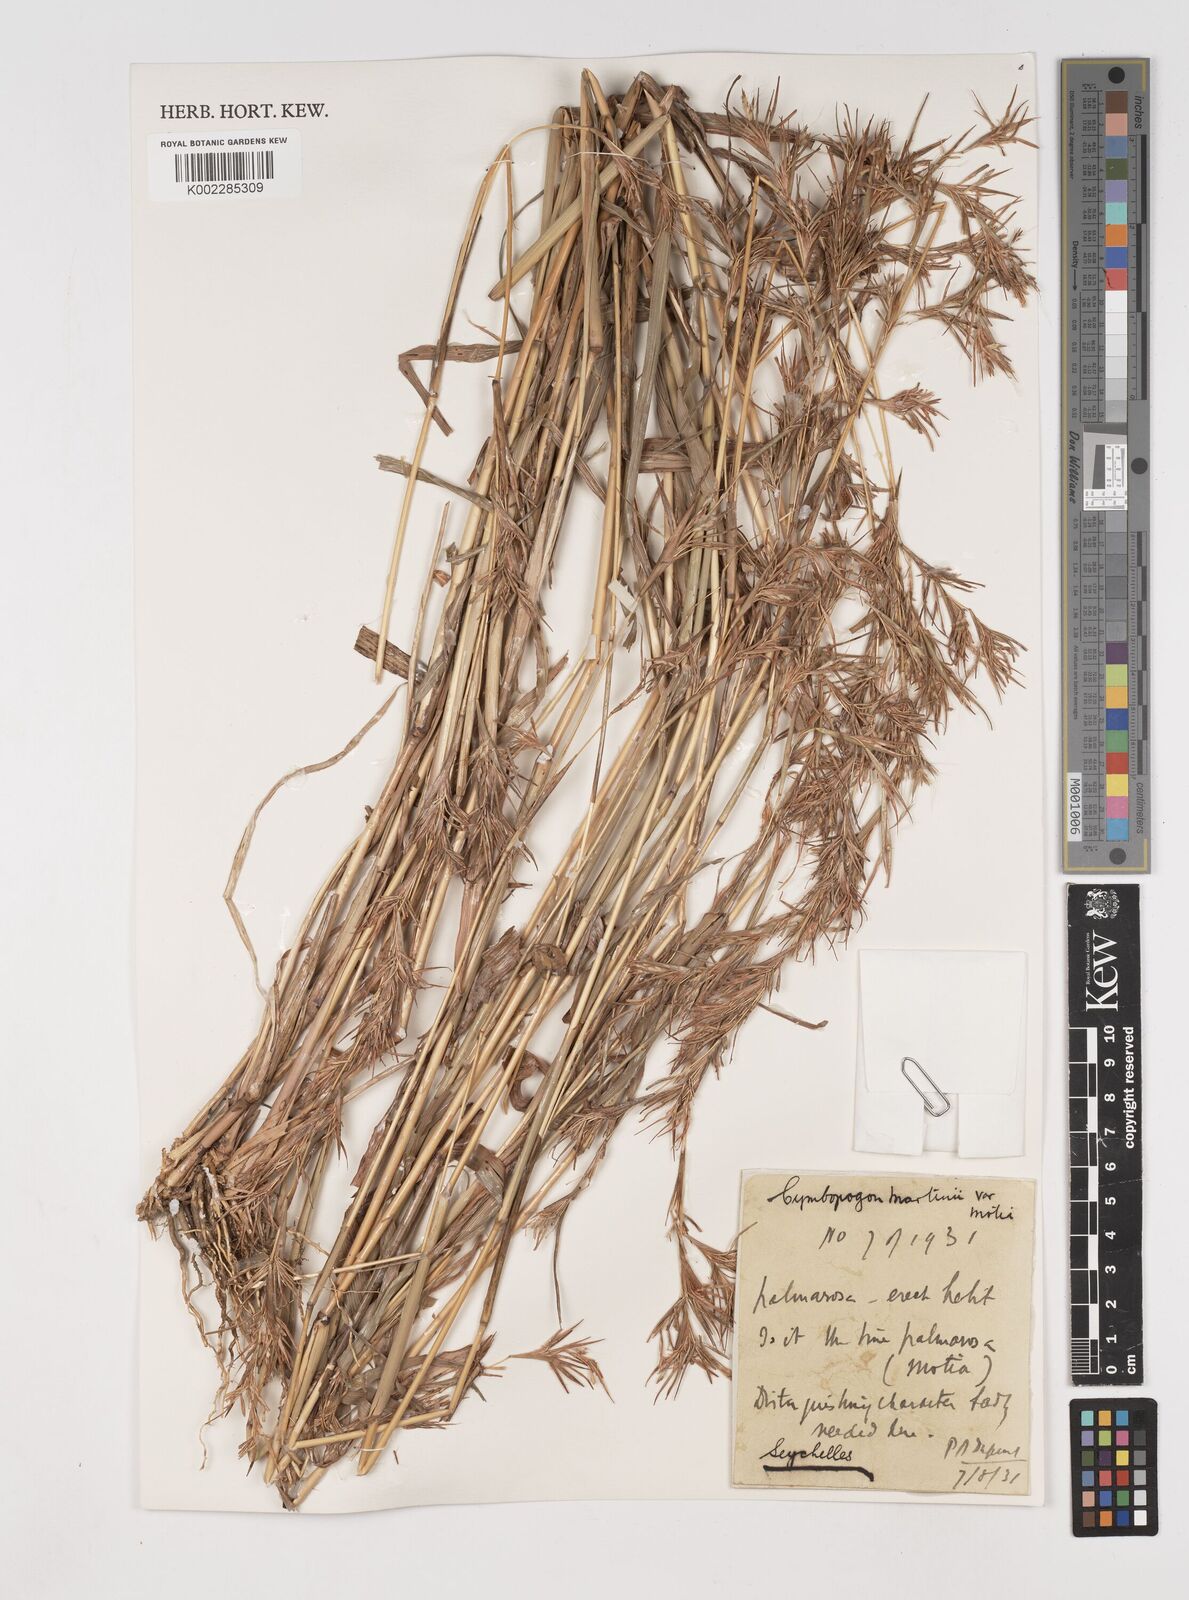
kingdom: Plantae
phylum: Tracheophyta
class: Liliopsida
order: Poales
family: Poaceae
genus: Cymbopogon
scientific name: Cymbopogon martini
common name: Ginger grass
